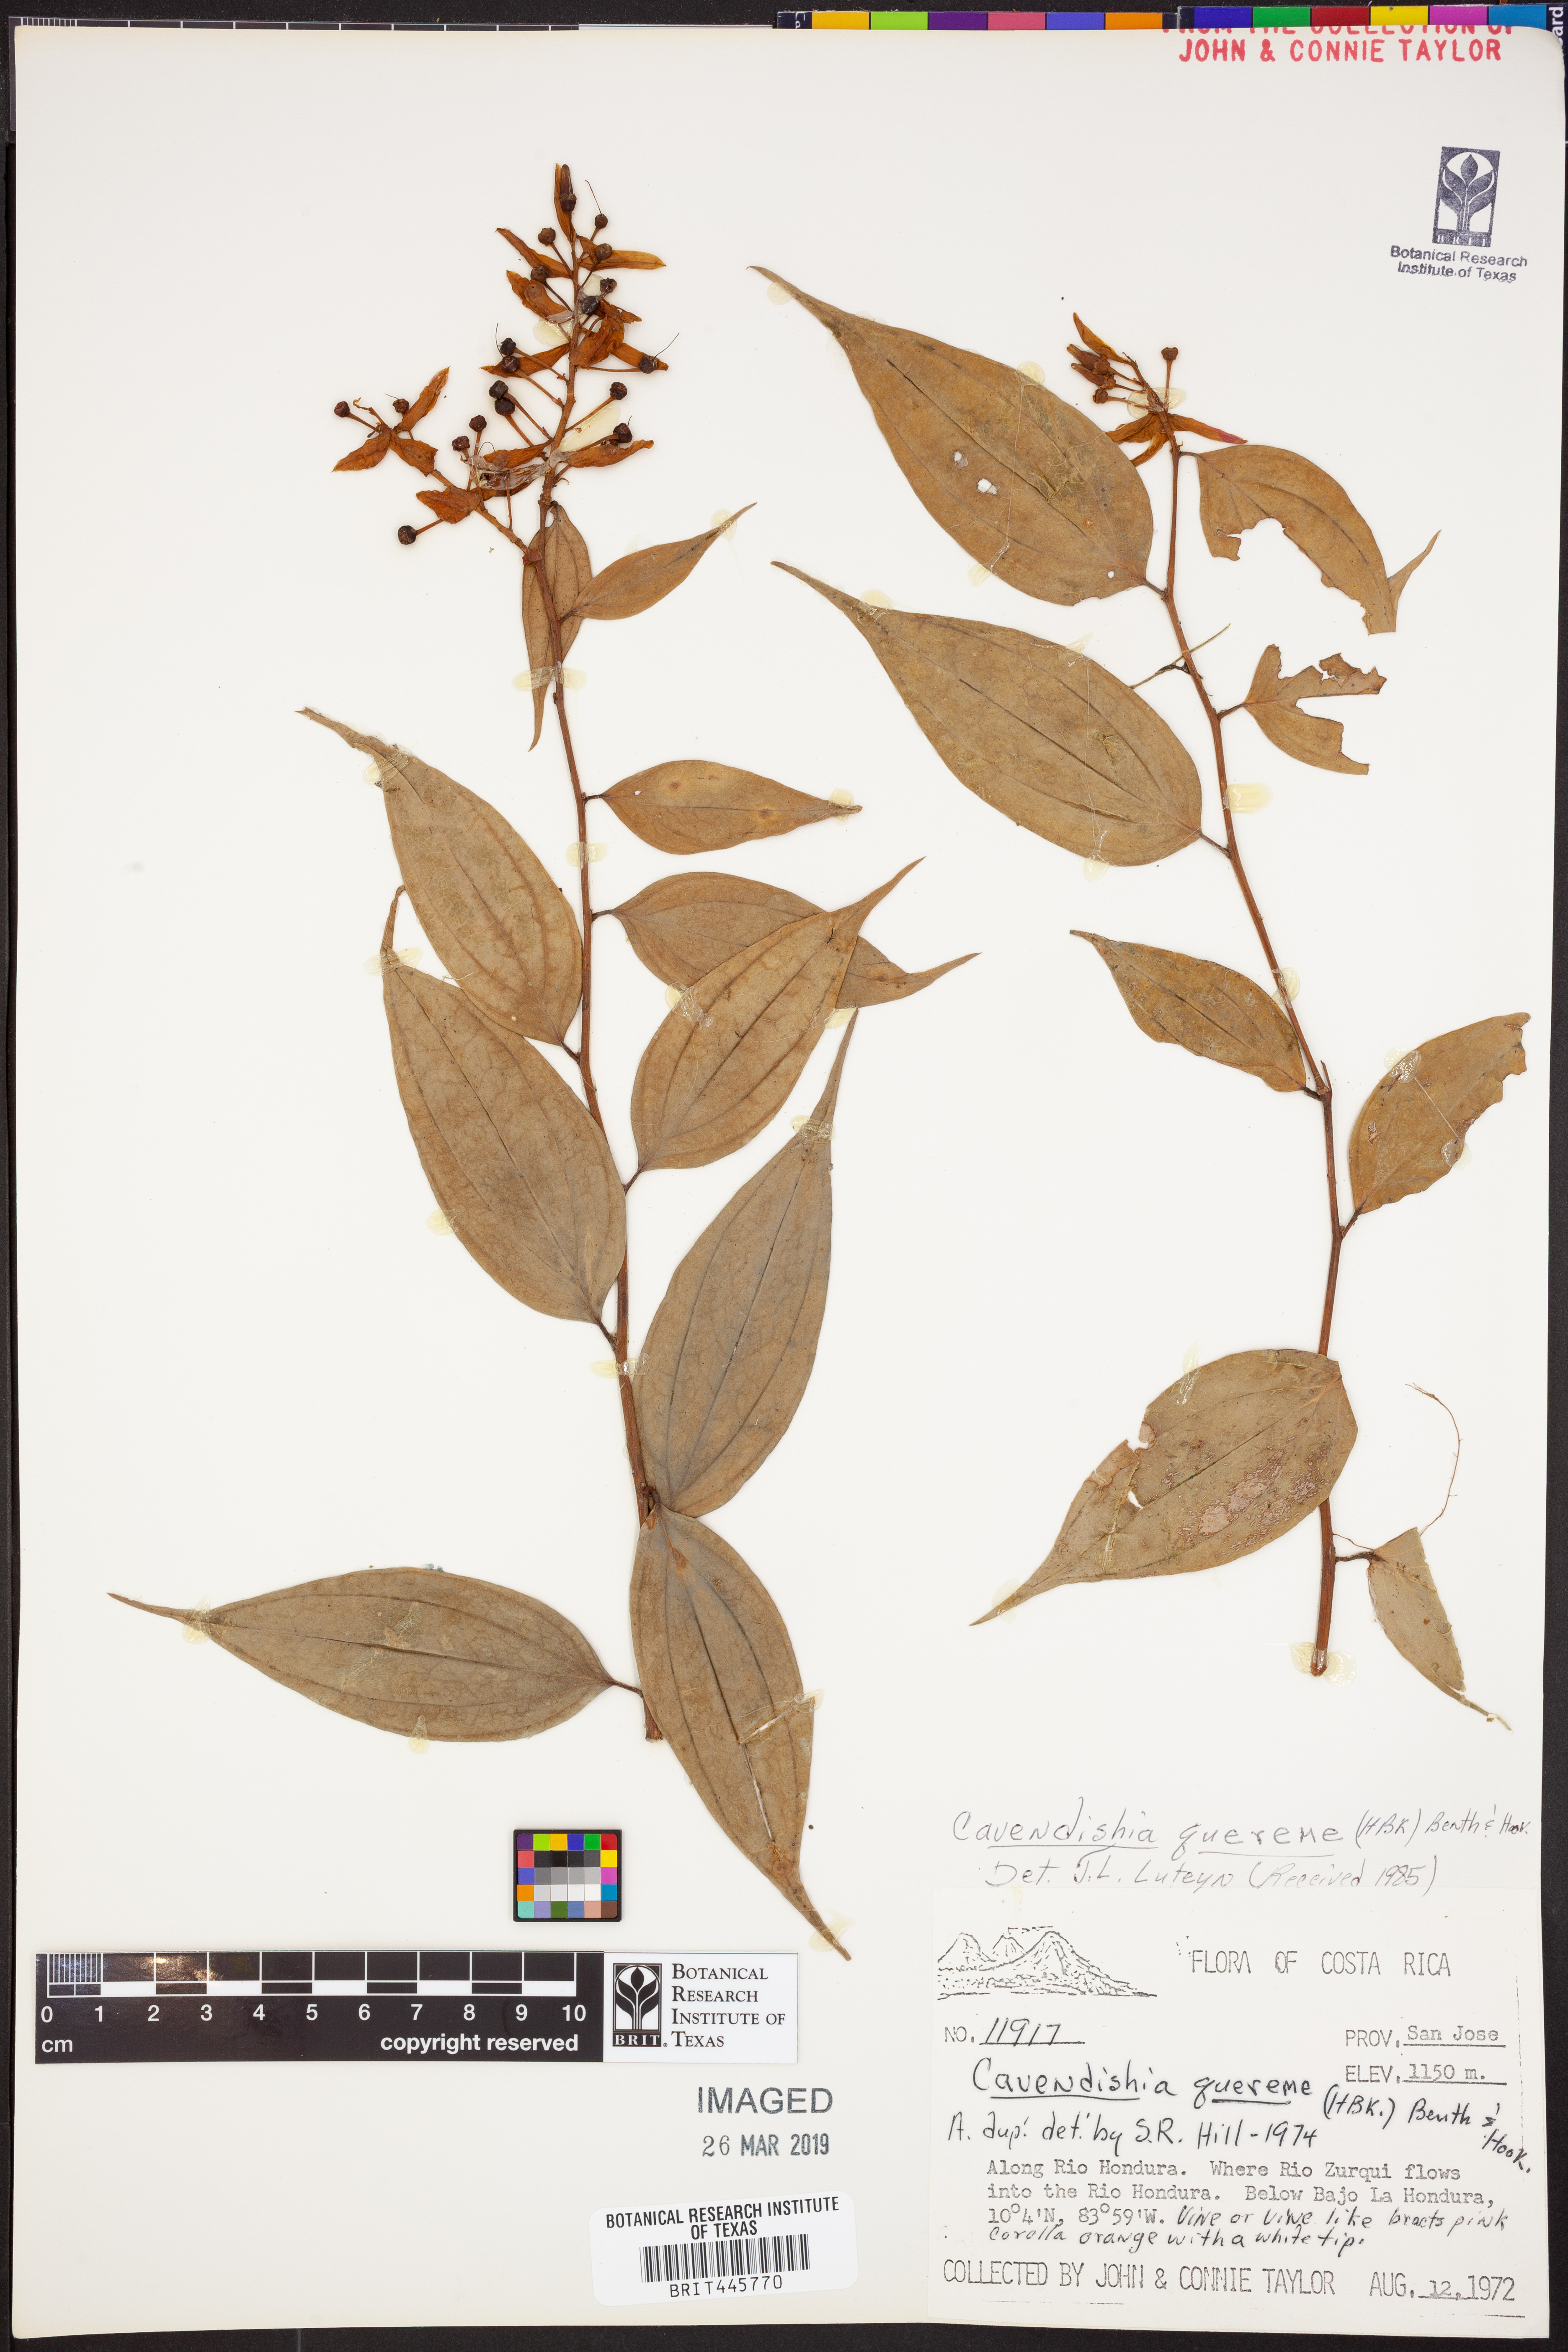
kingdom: Plantae
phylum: Tracheophyta
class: Magnoliopsida
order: Ericales
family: Ericaceae
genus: Cavendishia
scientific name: Cavendishia quereme
